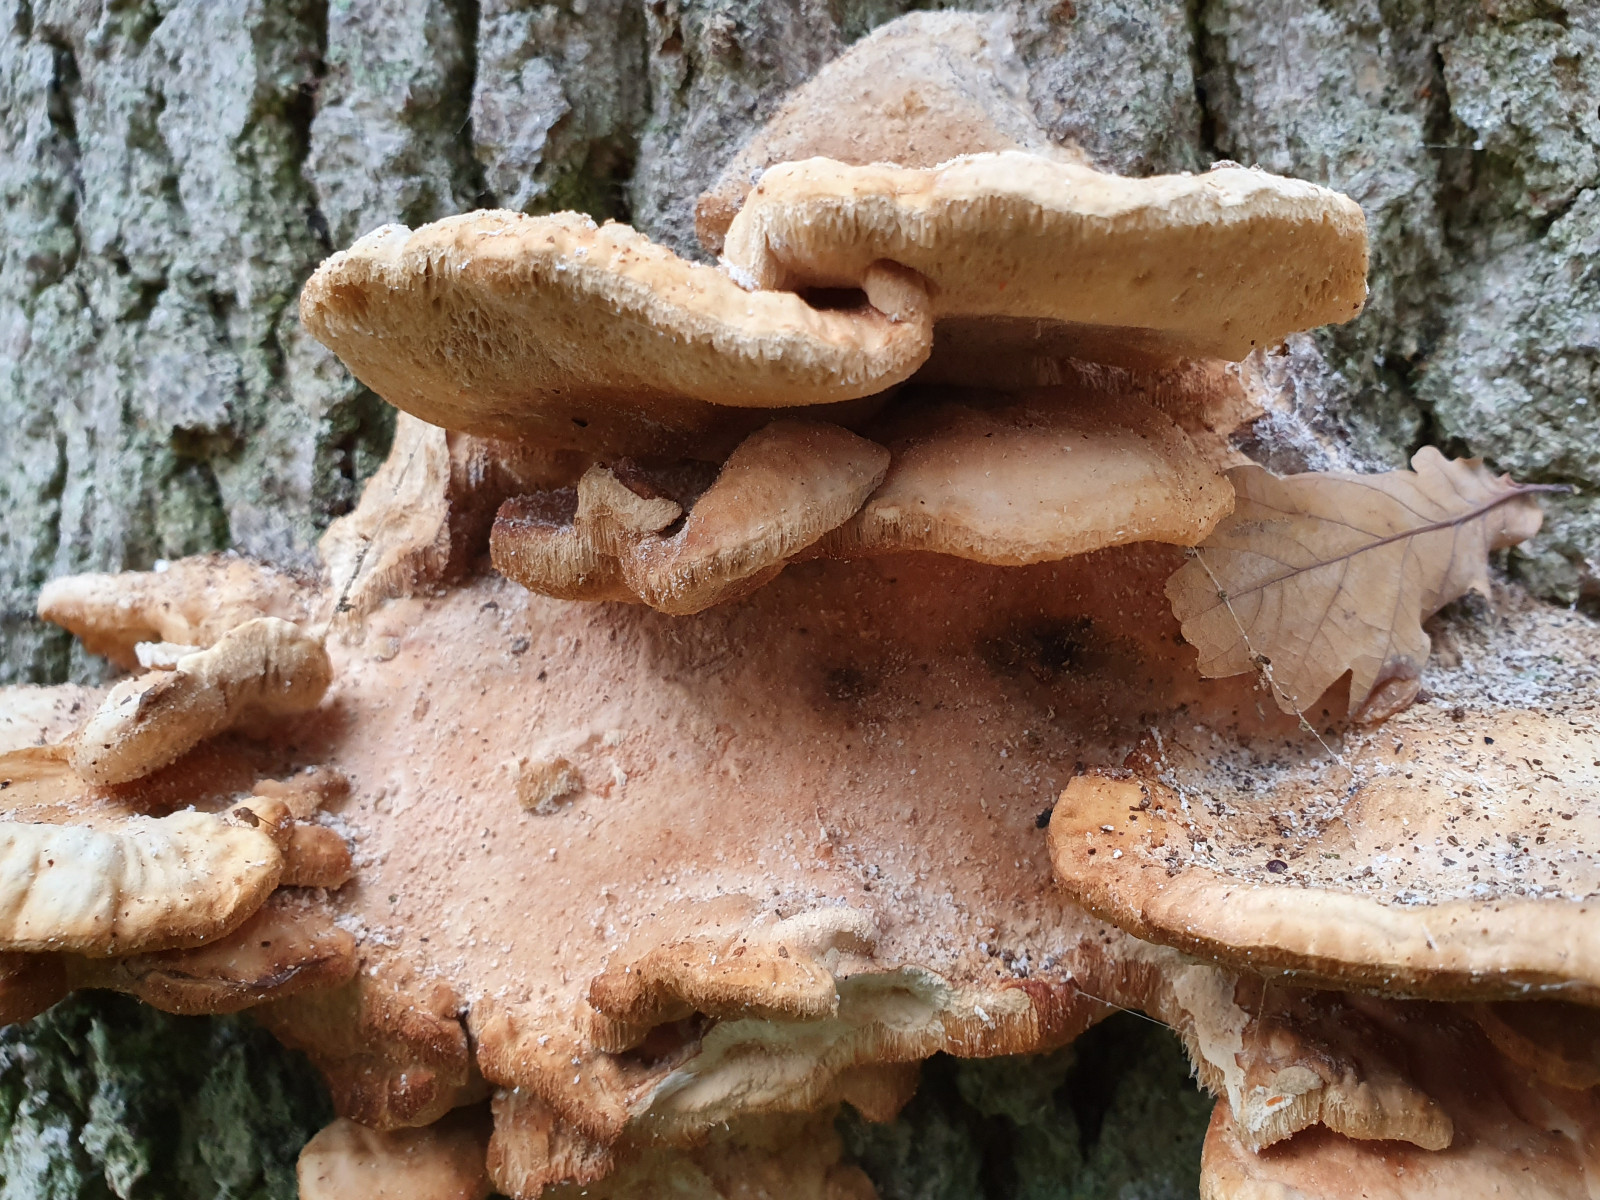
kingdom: Fungi
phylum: Basidiomycota
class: Agaricomycetes
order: Polyporales
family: Laetiporaceae
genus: Laetiporus
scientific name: Laetiporus sulphureus
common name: svovlporesvamp
